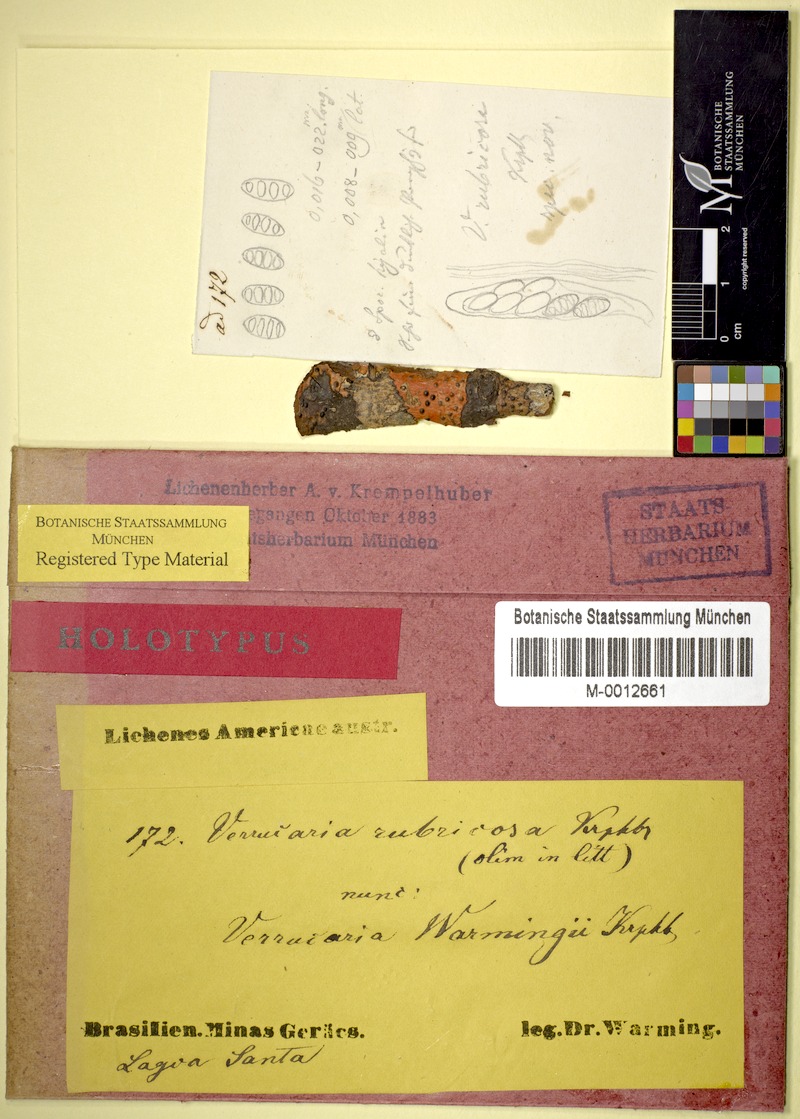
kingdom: Fungi
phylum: Ascomycota
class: Eurotiomycetes
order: Pyrenulales
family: Pyrenulaceae
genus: Pyrenula
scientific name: Pyrenula warmingii
